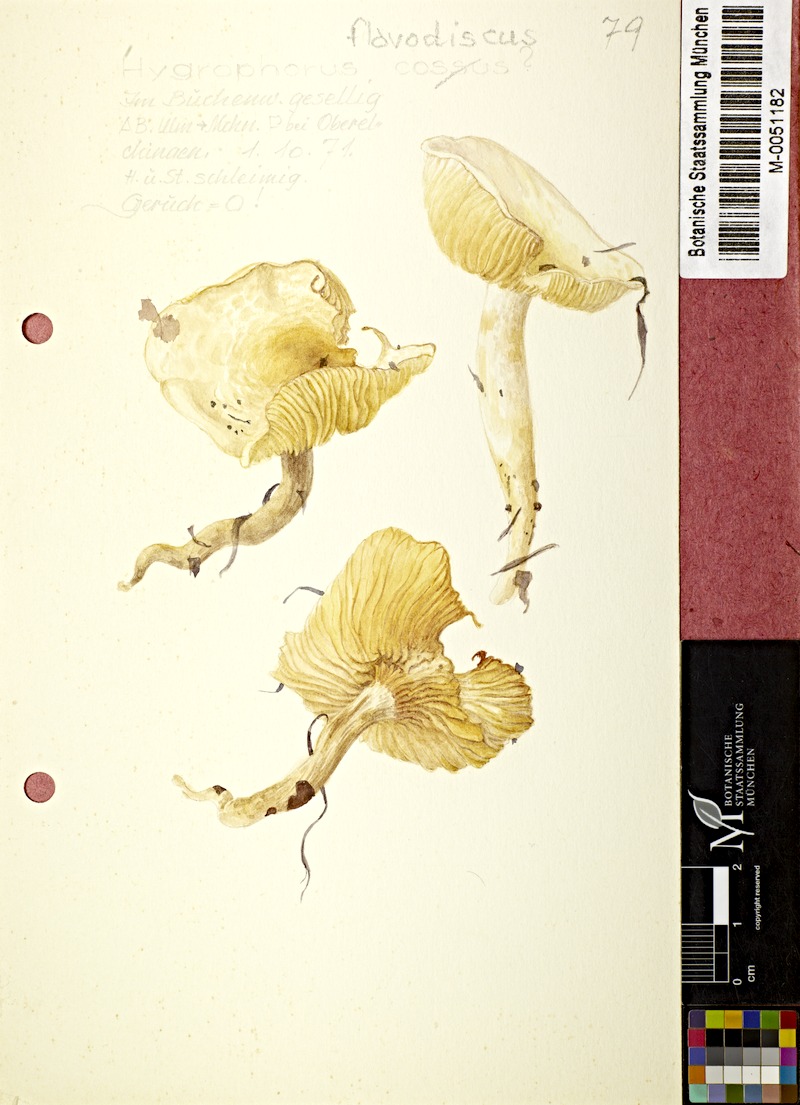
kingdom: Fungi
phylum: Basidiomycota
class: Agaricomycetes
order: Agaricales
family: Hygrophoraceae
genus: Hygrophorus
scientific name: Hygrophorus ligatus
